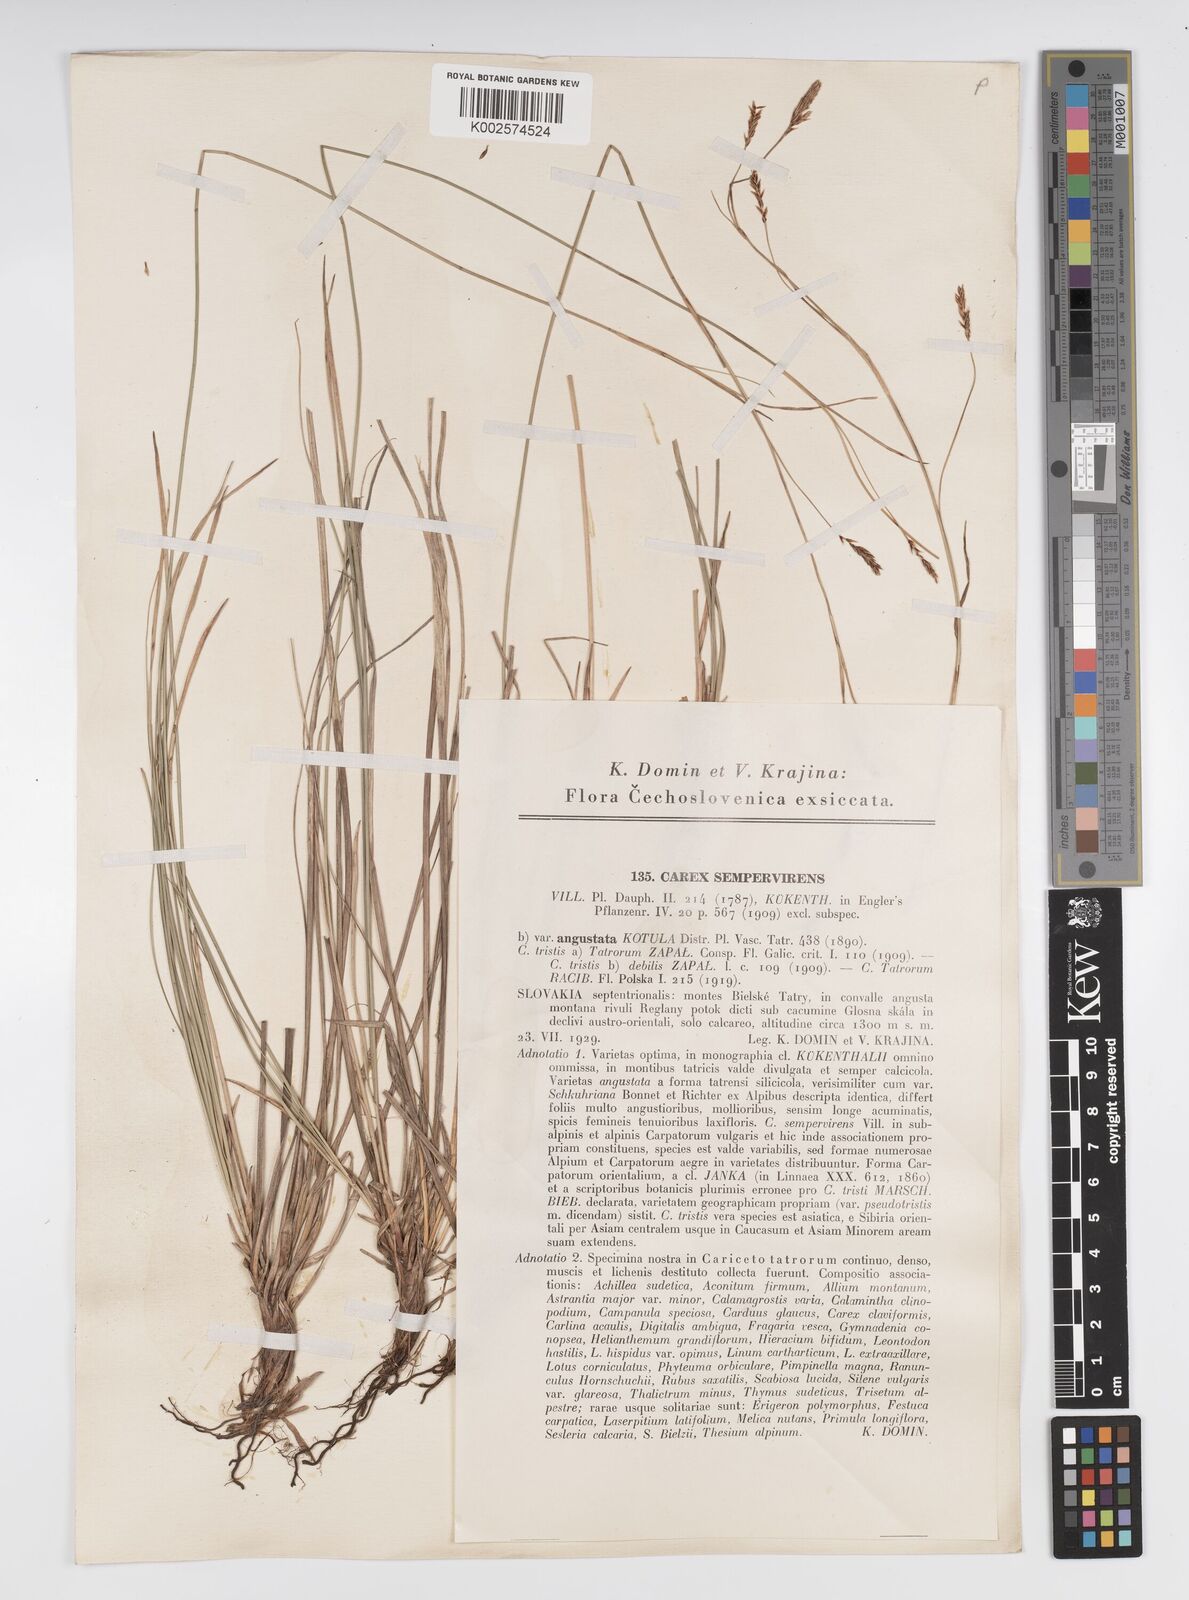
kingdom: Plantae
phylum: Tracheophyta
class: Liliopsida
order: Poales
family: Cyperaceae
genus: Carex
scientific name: Carex sempervirens
